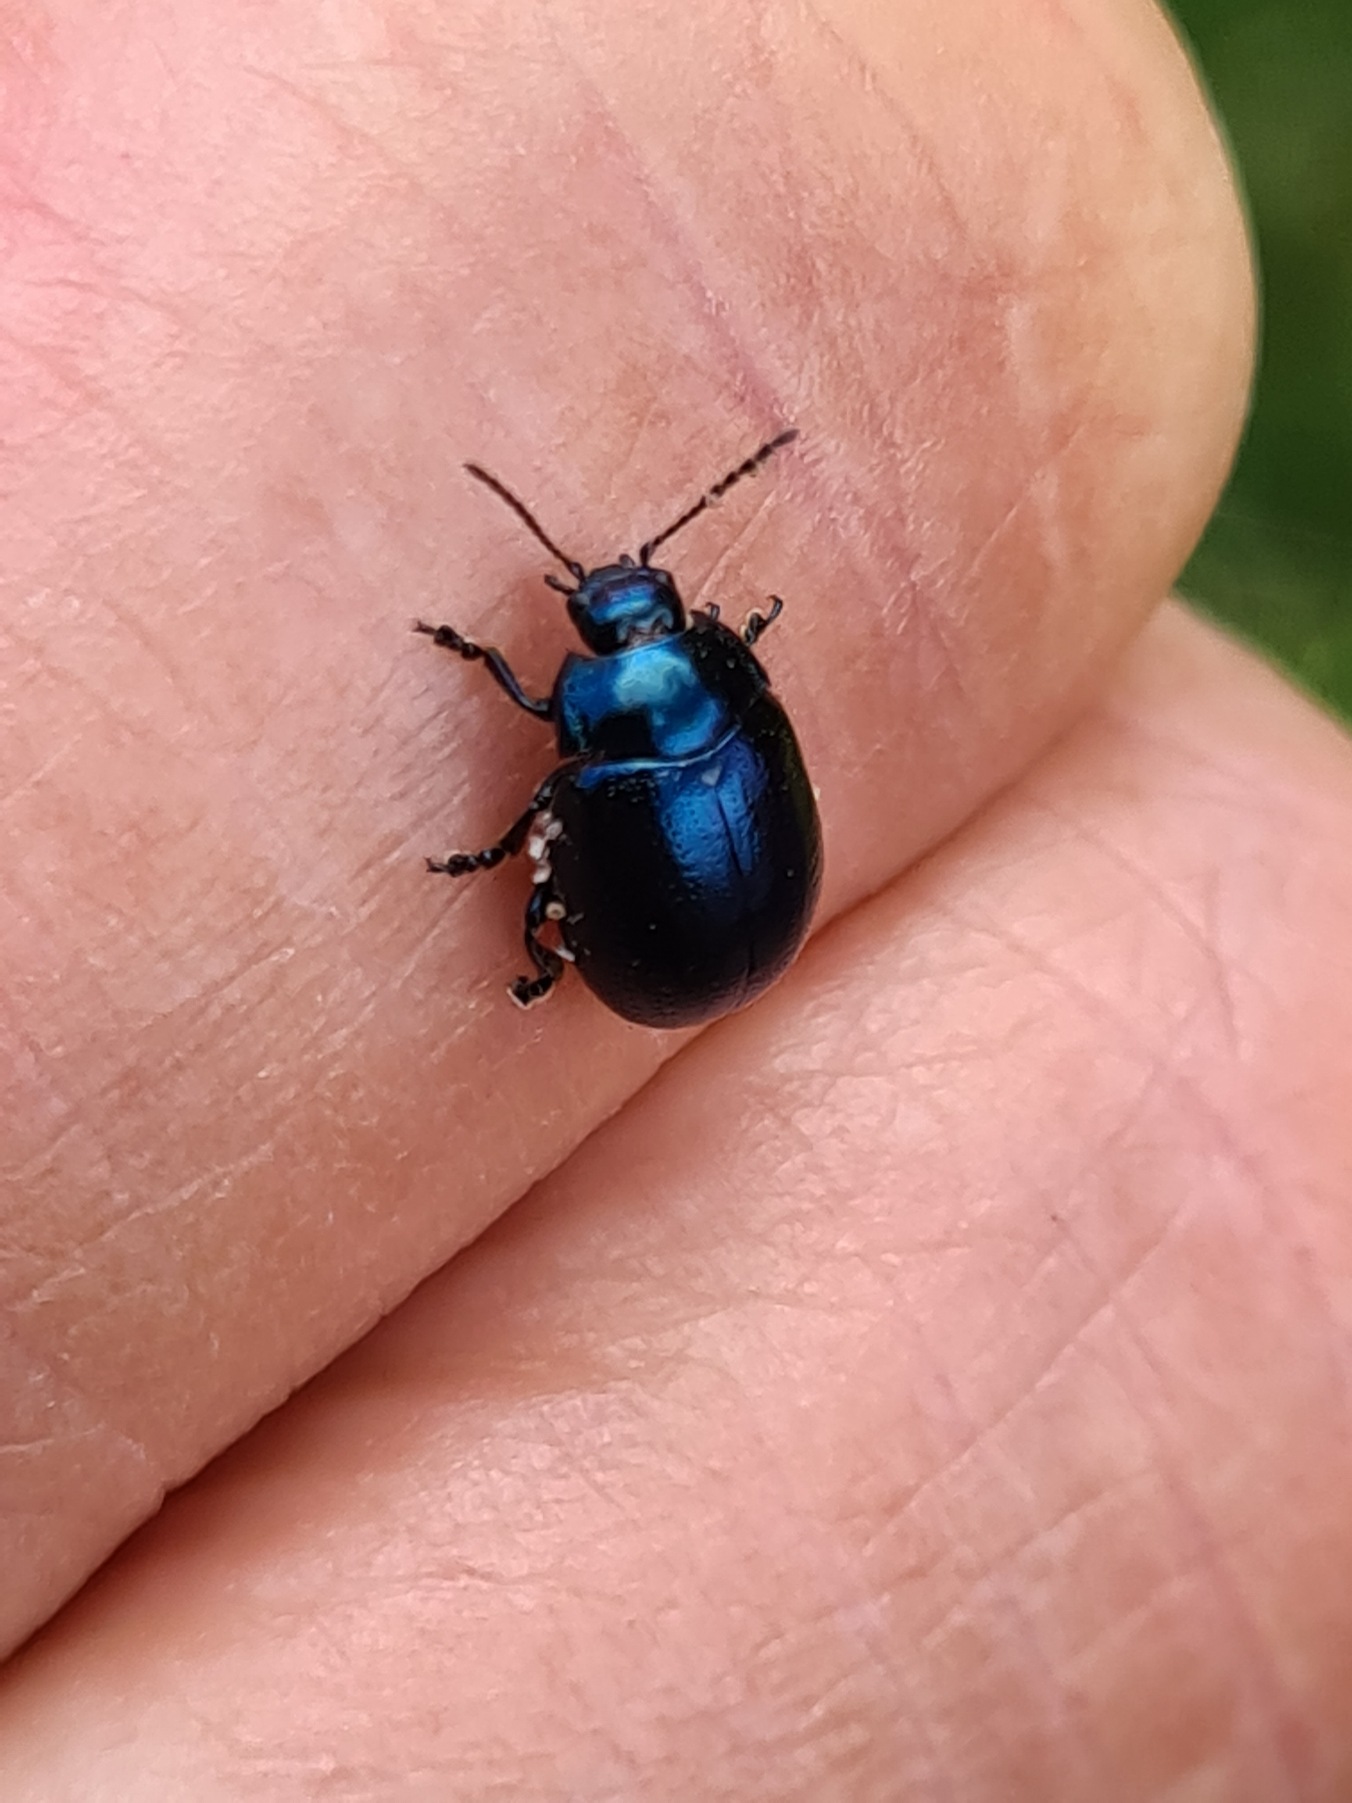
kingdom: Animalia
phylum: Arthropoda
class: Insecta
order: Coleoptera
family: Chrysomelidae
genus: Chrysolina
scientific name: Chrysolina geminata
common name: Perikonbladbille
